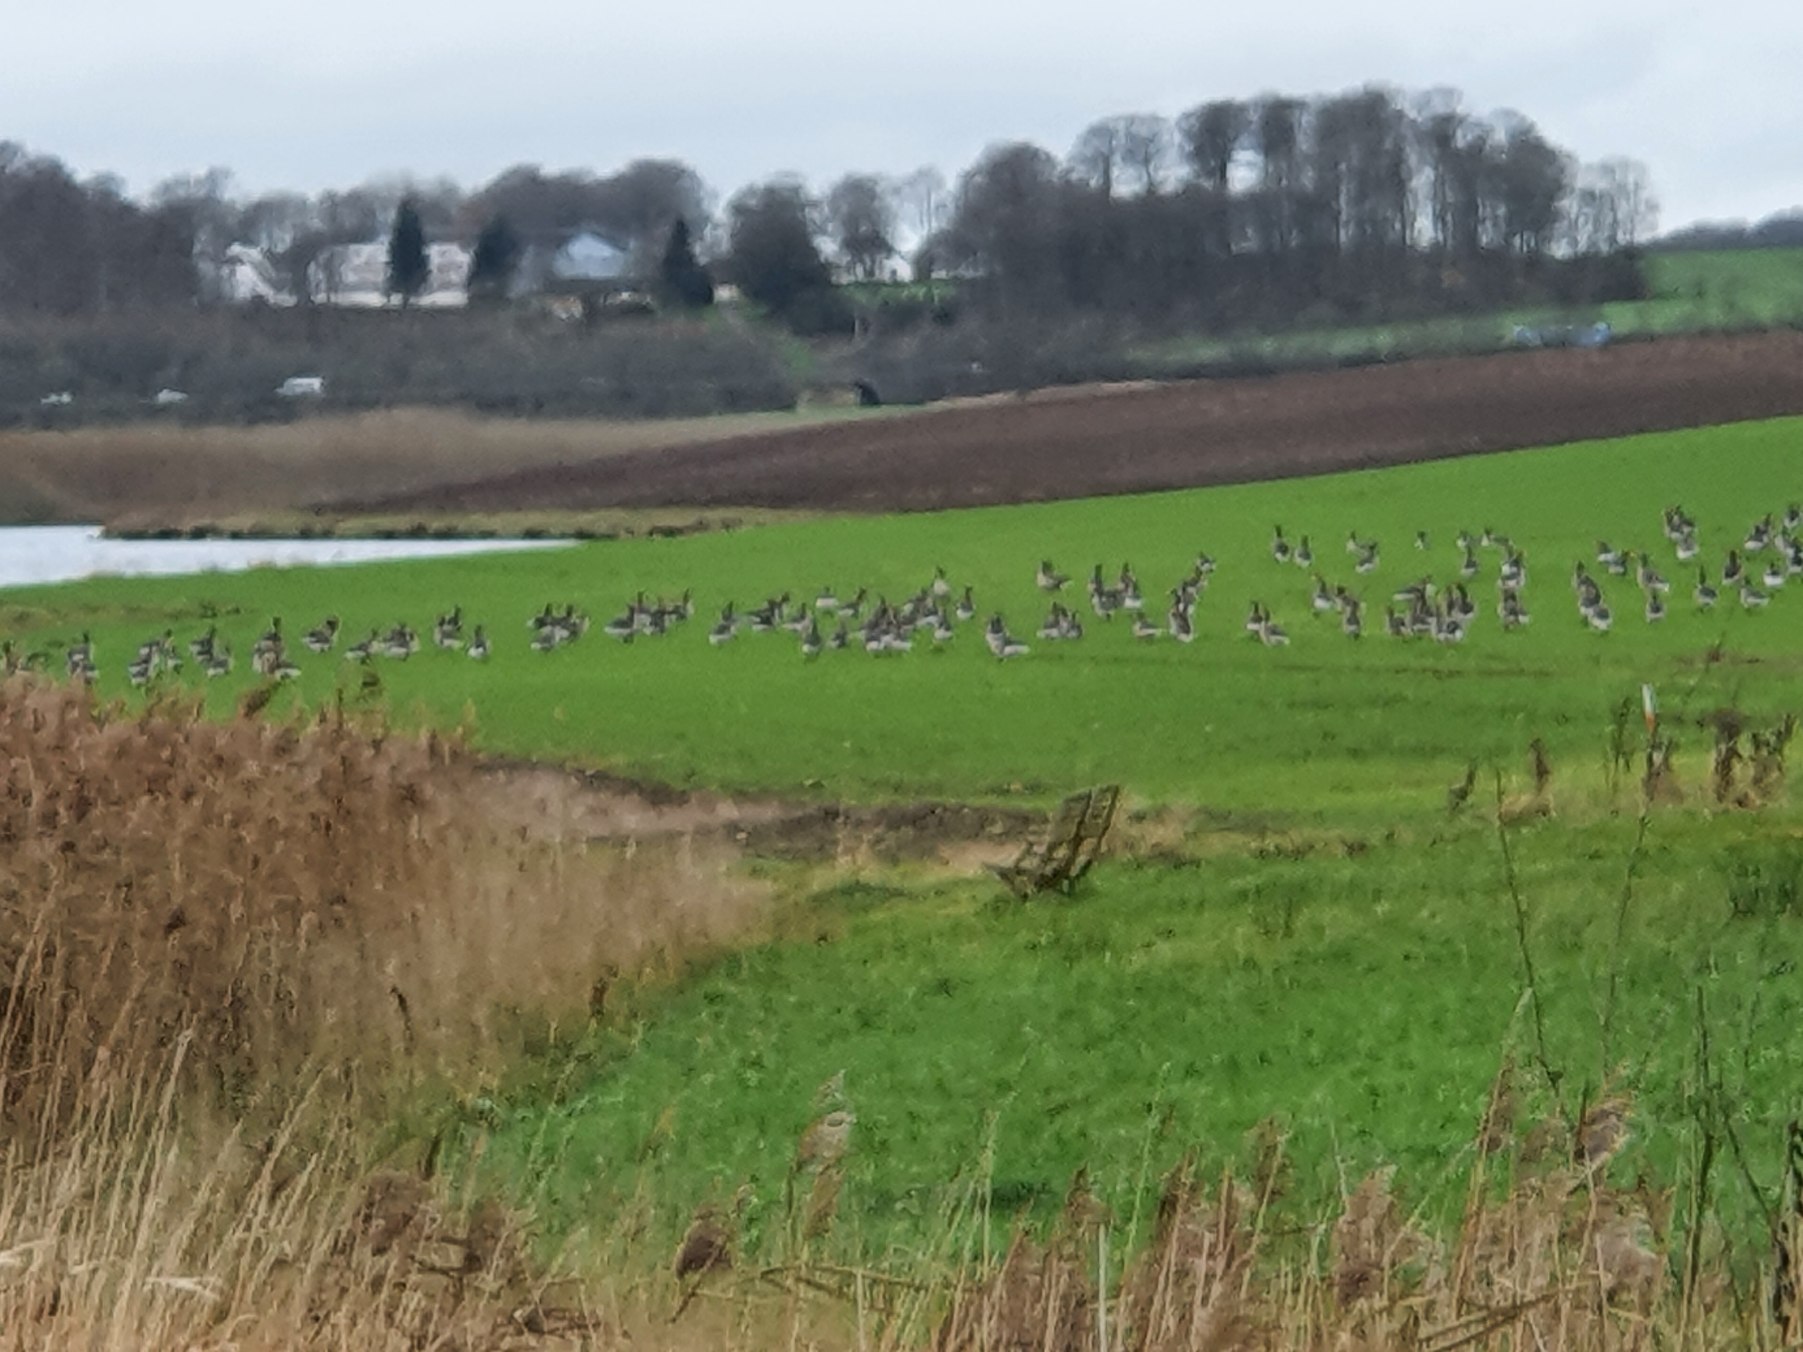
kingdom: Animalia
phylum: Chordata
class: Aves
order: Anseriformes
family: Anatidae
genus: Anser
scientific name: Anser anser
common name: Grågås
